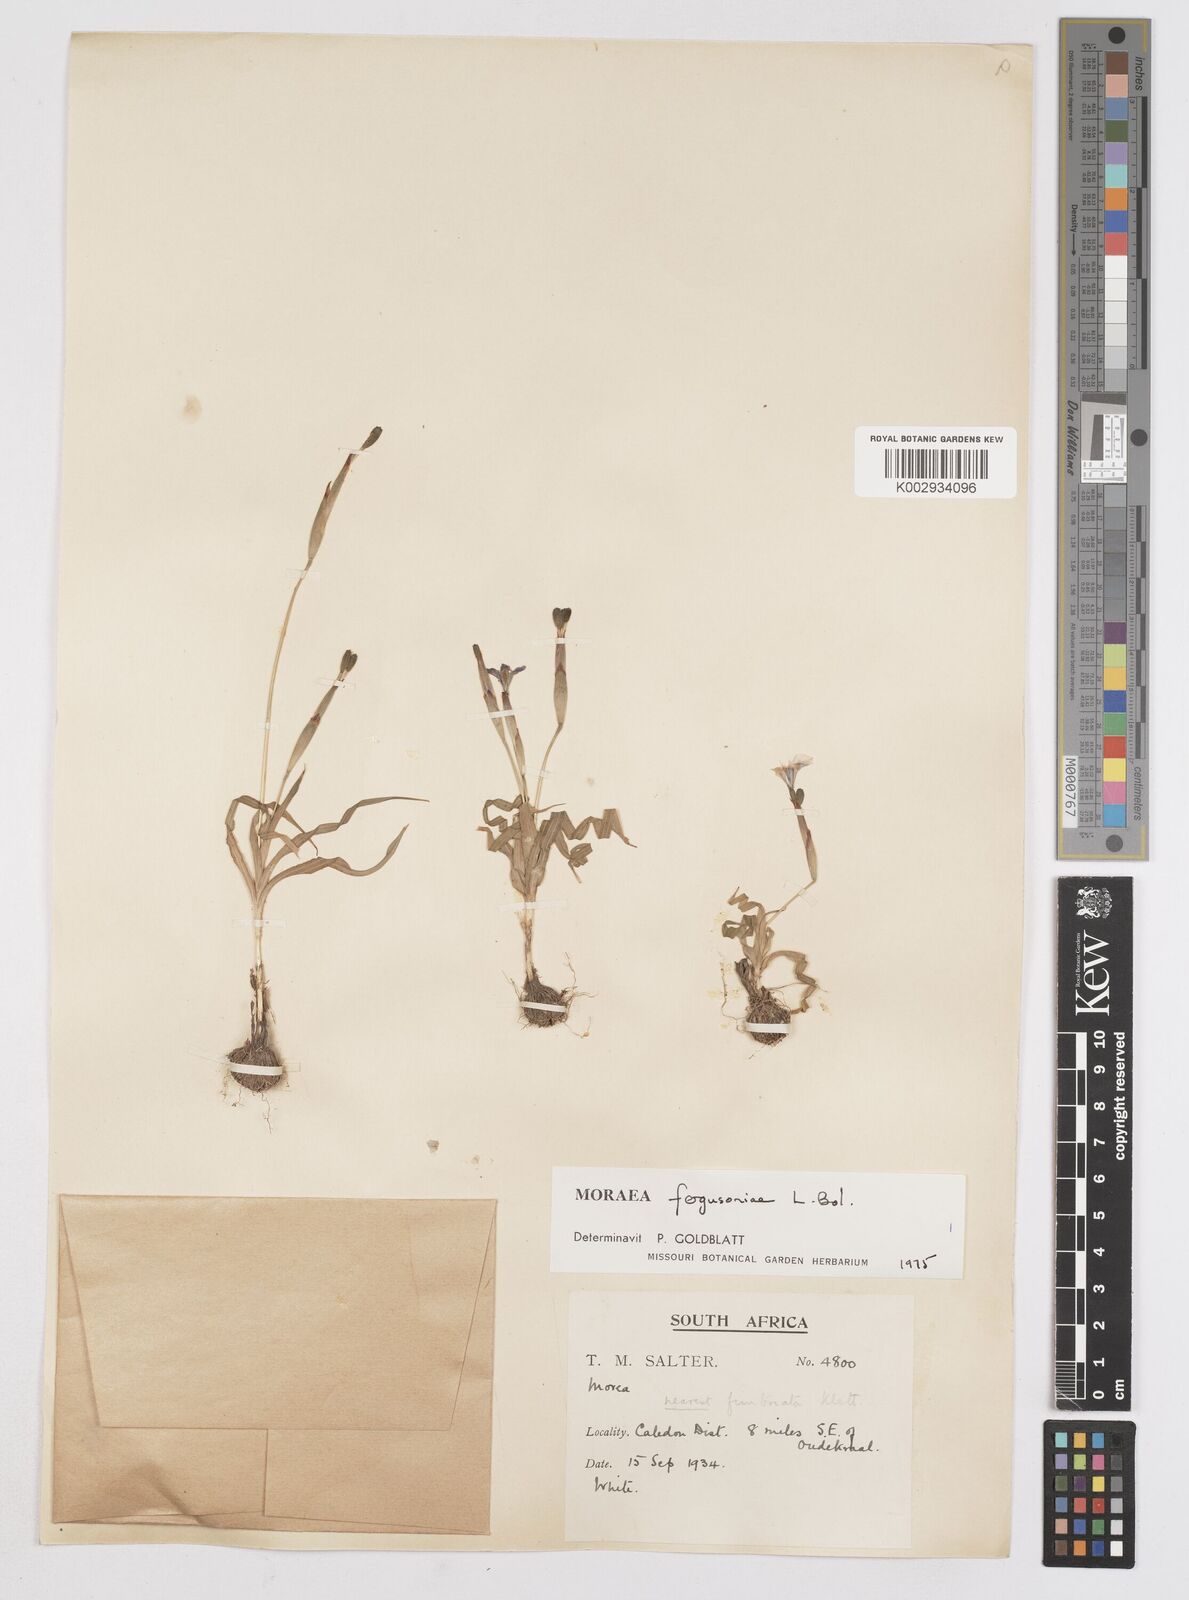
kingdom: Plantae
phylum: Tracheophyta
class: Liliopsida
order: Asparagales
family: Iridaceae
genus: Moraea
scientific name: Moraea fergusoniae
